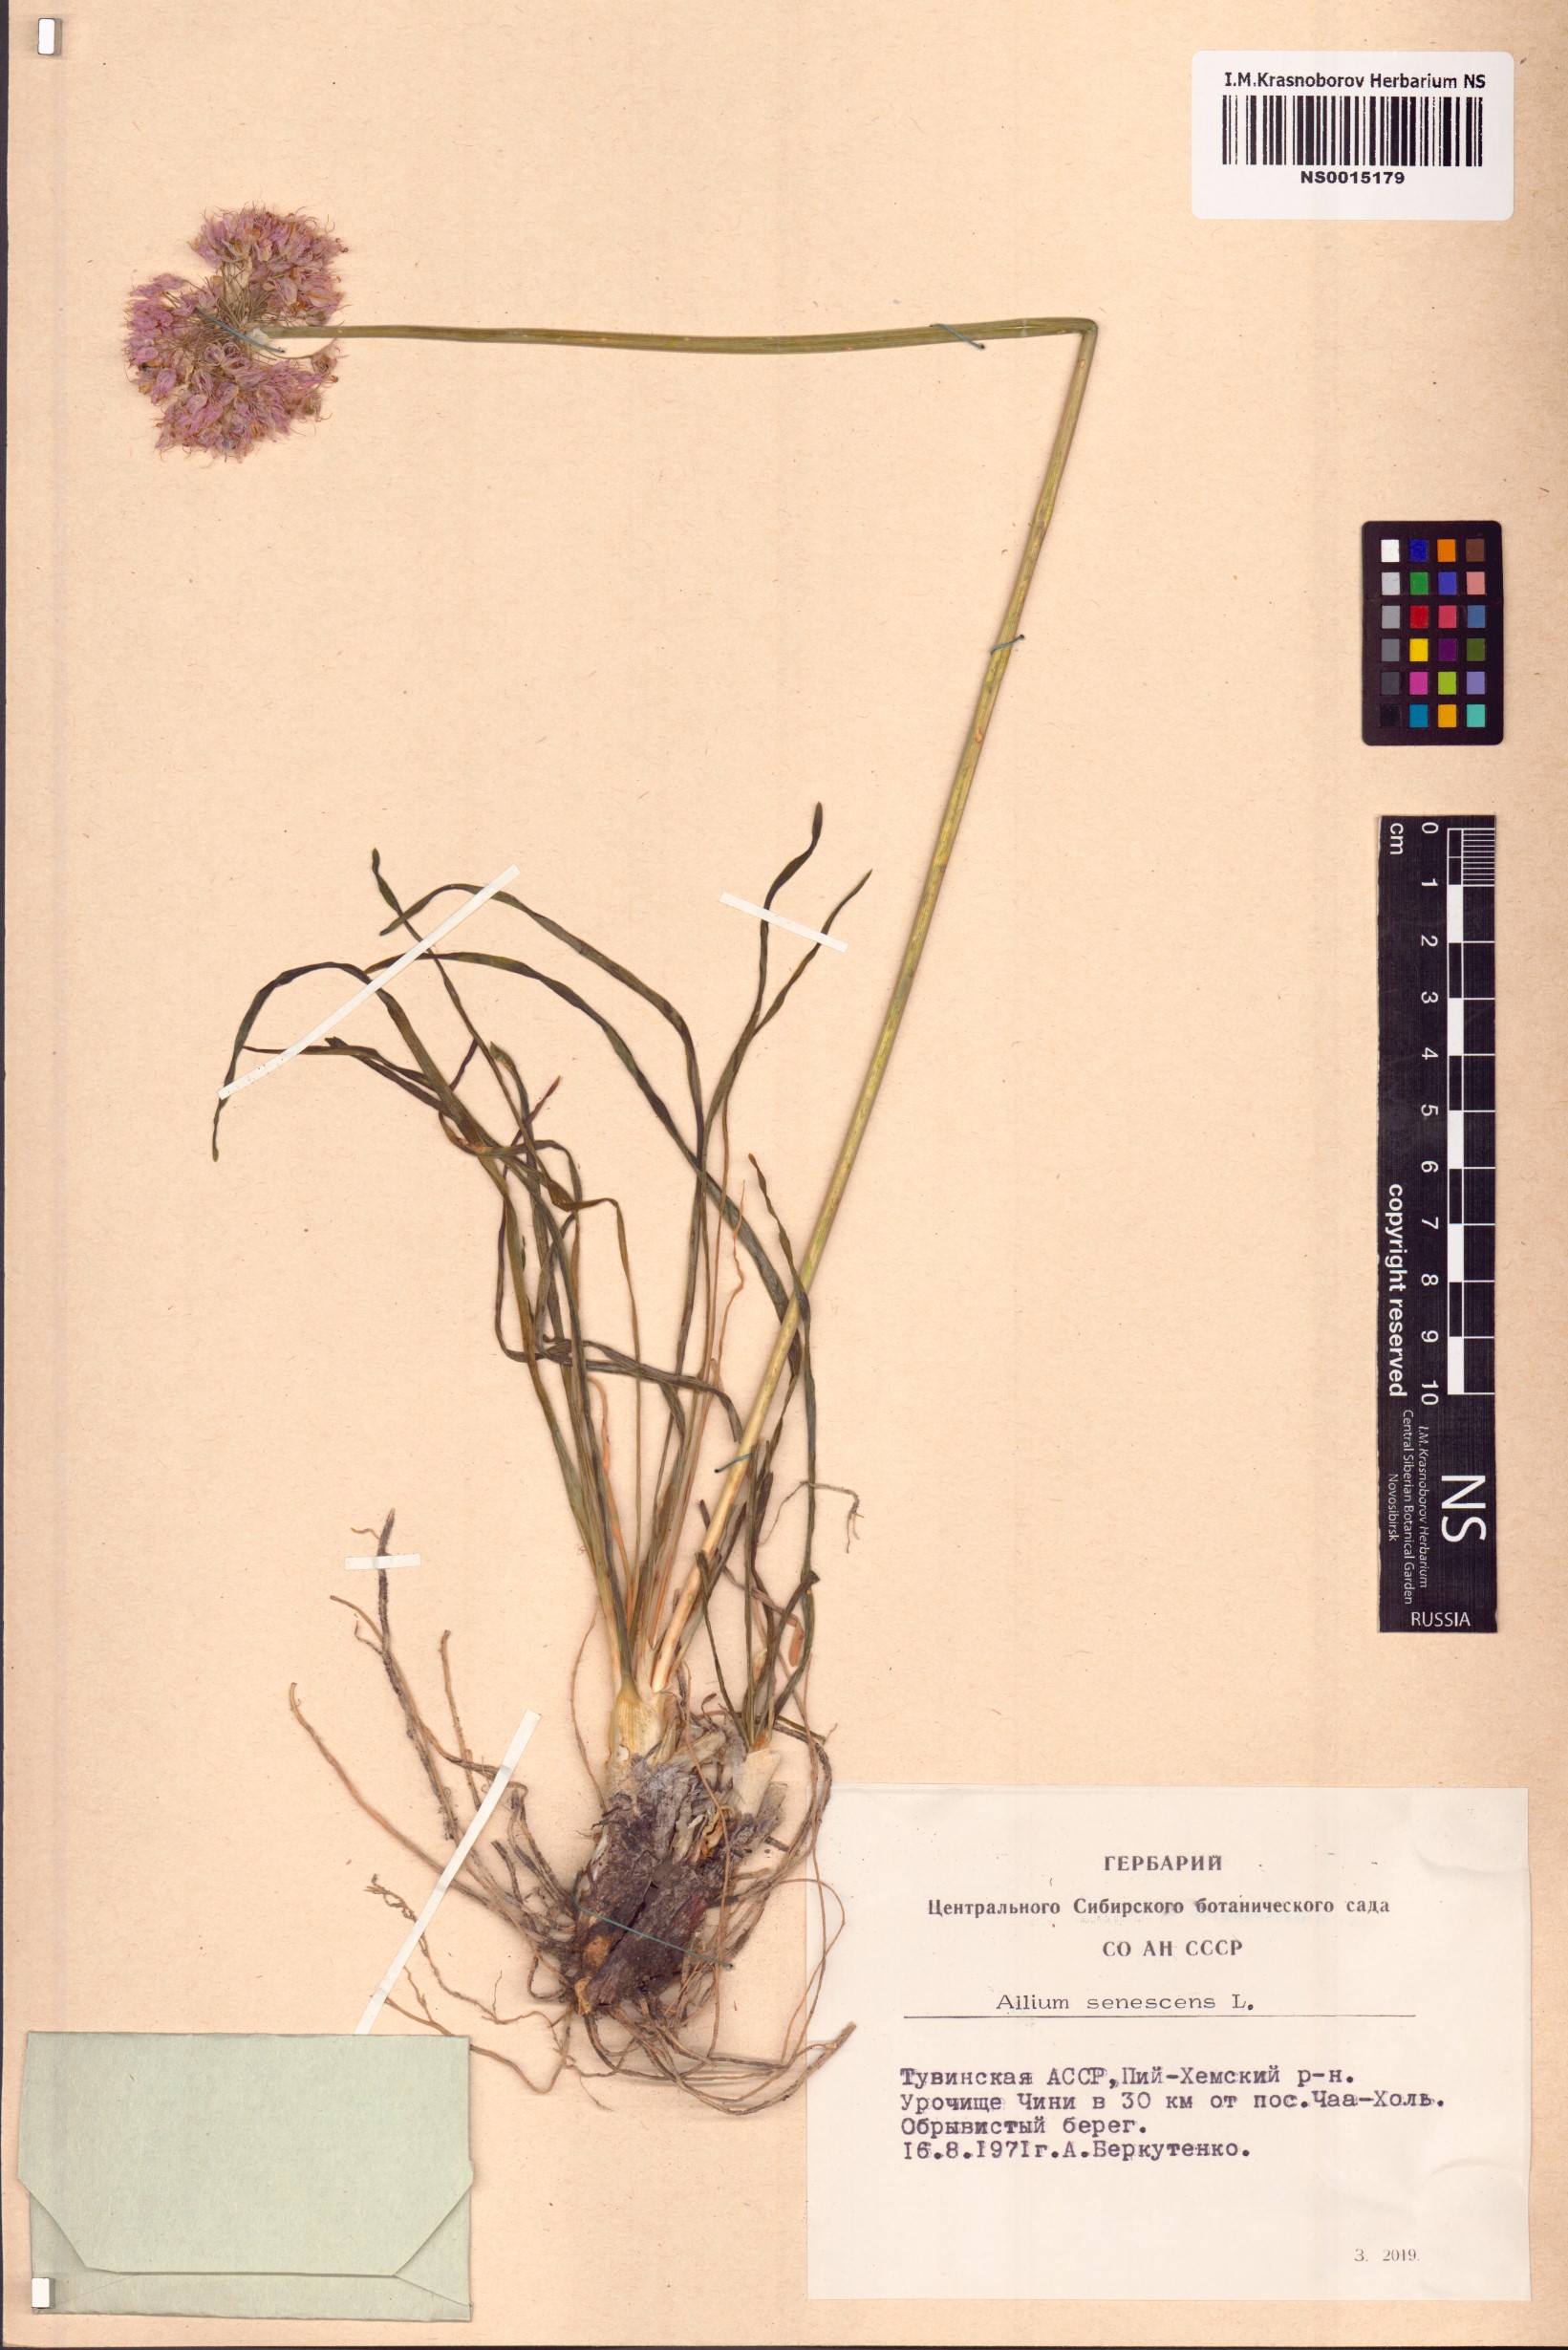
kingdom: Plantae
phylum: Tracheophyta
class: Liliopsida
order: Asparagales
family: Amaryllidaceae
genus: Allium
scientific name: Allium senescens
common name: German garlic
